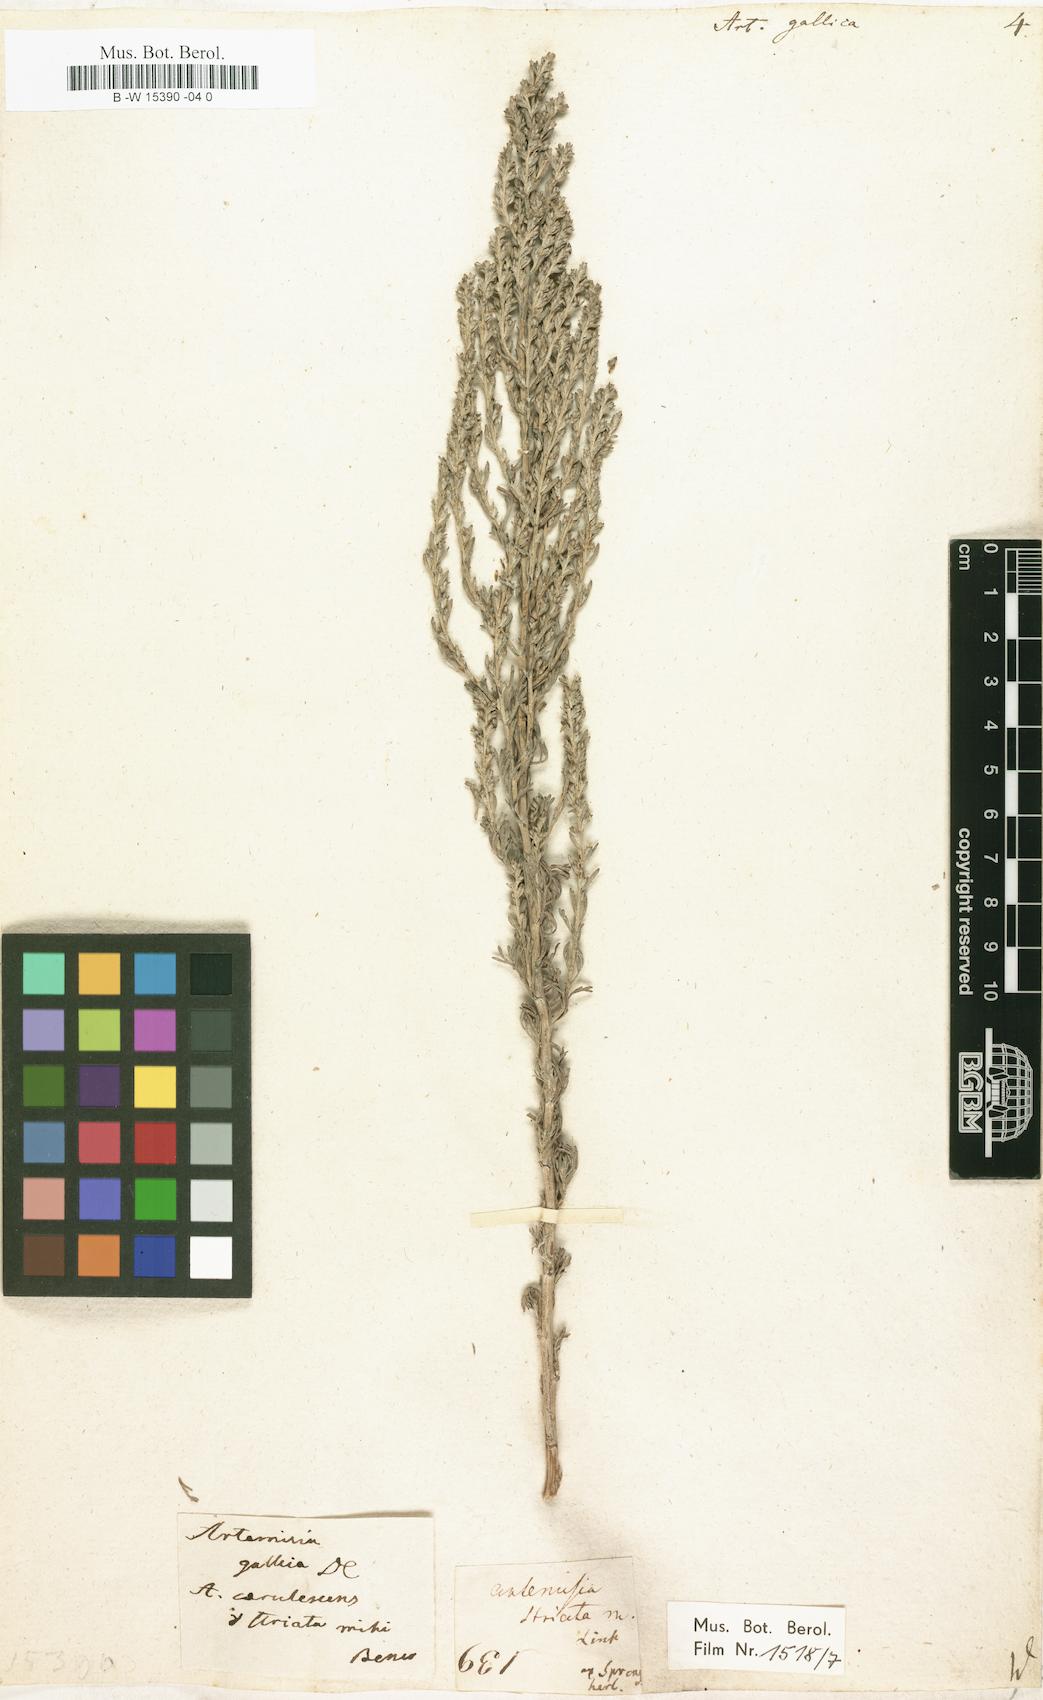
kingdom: Plantae
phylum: Tracheophyta
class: Magnoliopsida
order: Asterales
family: Asteraceae
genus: Artemisia
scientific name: Artemisia caerulescens
